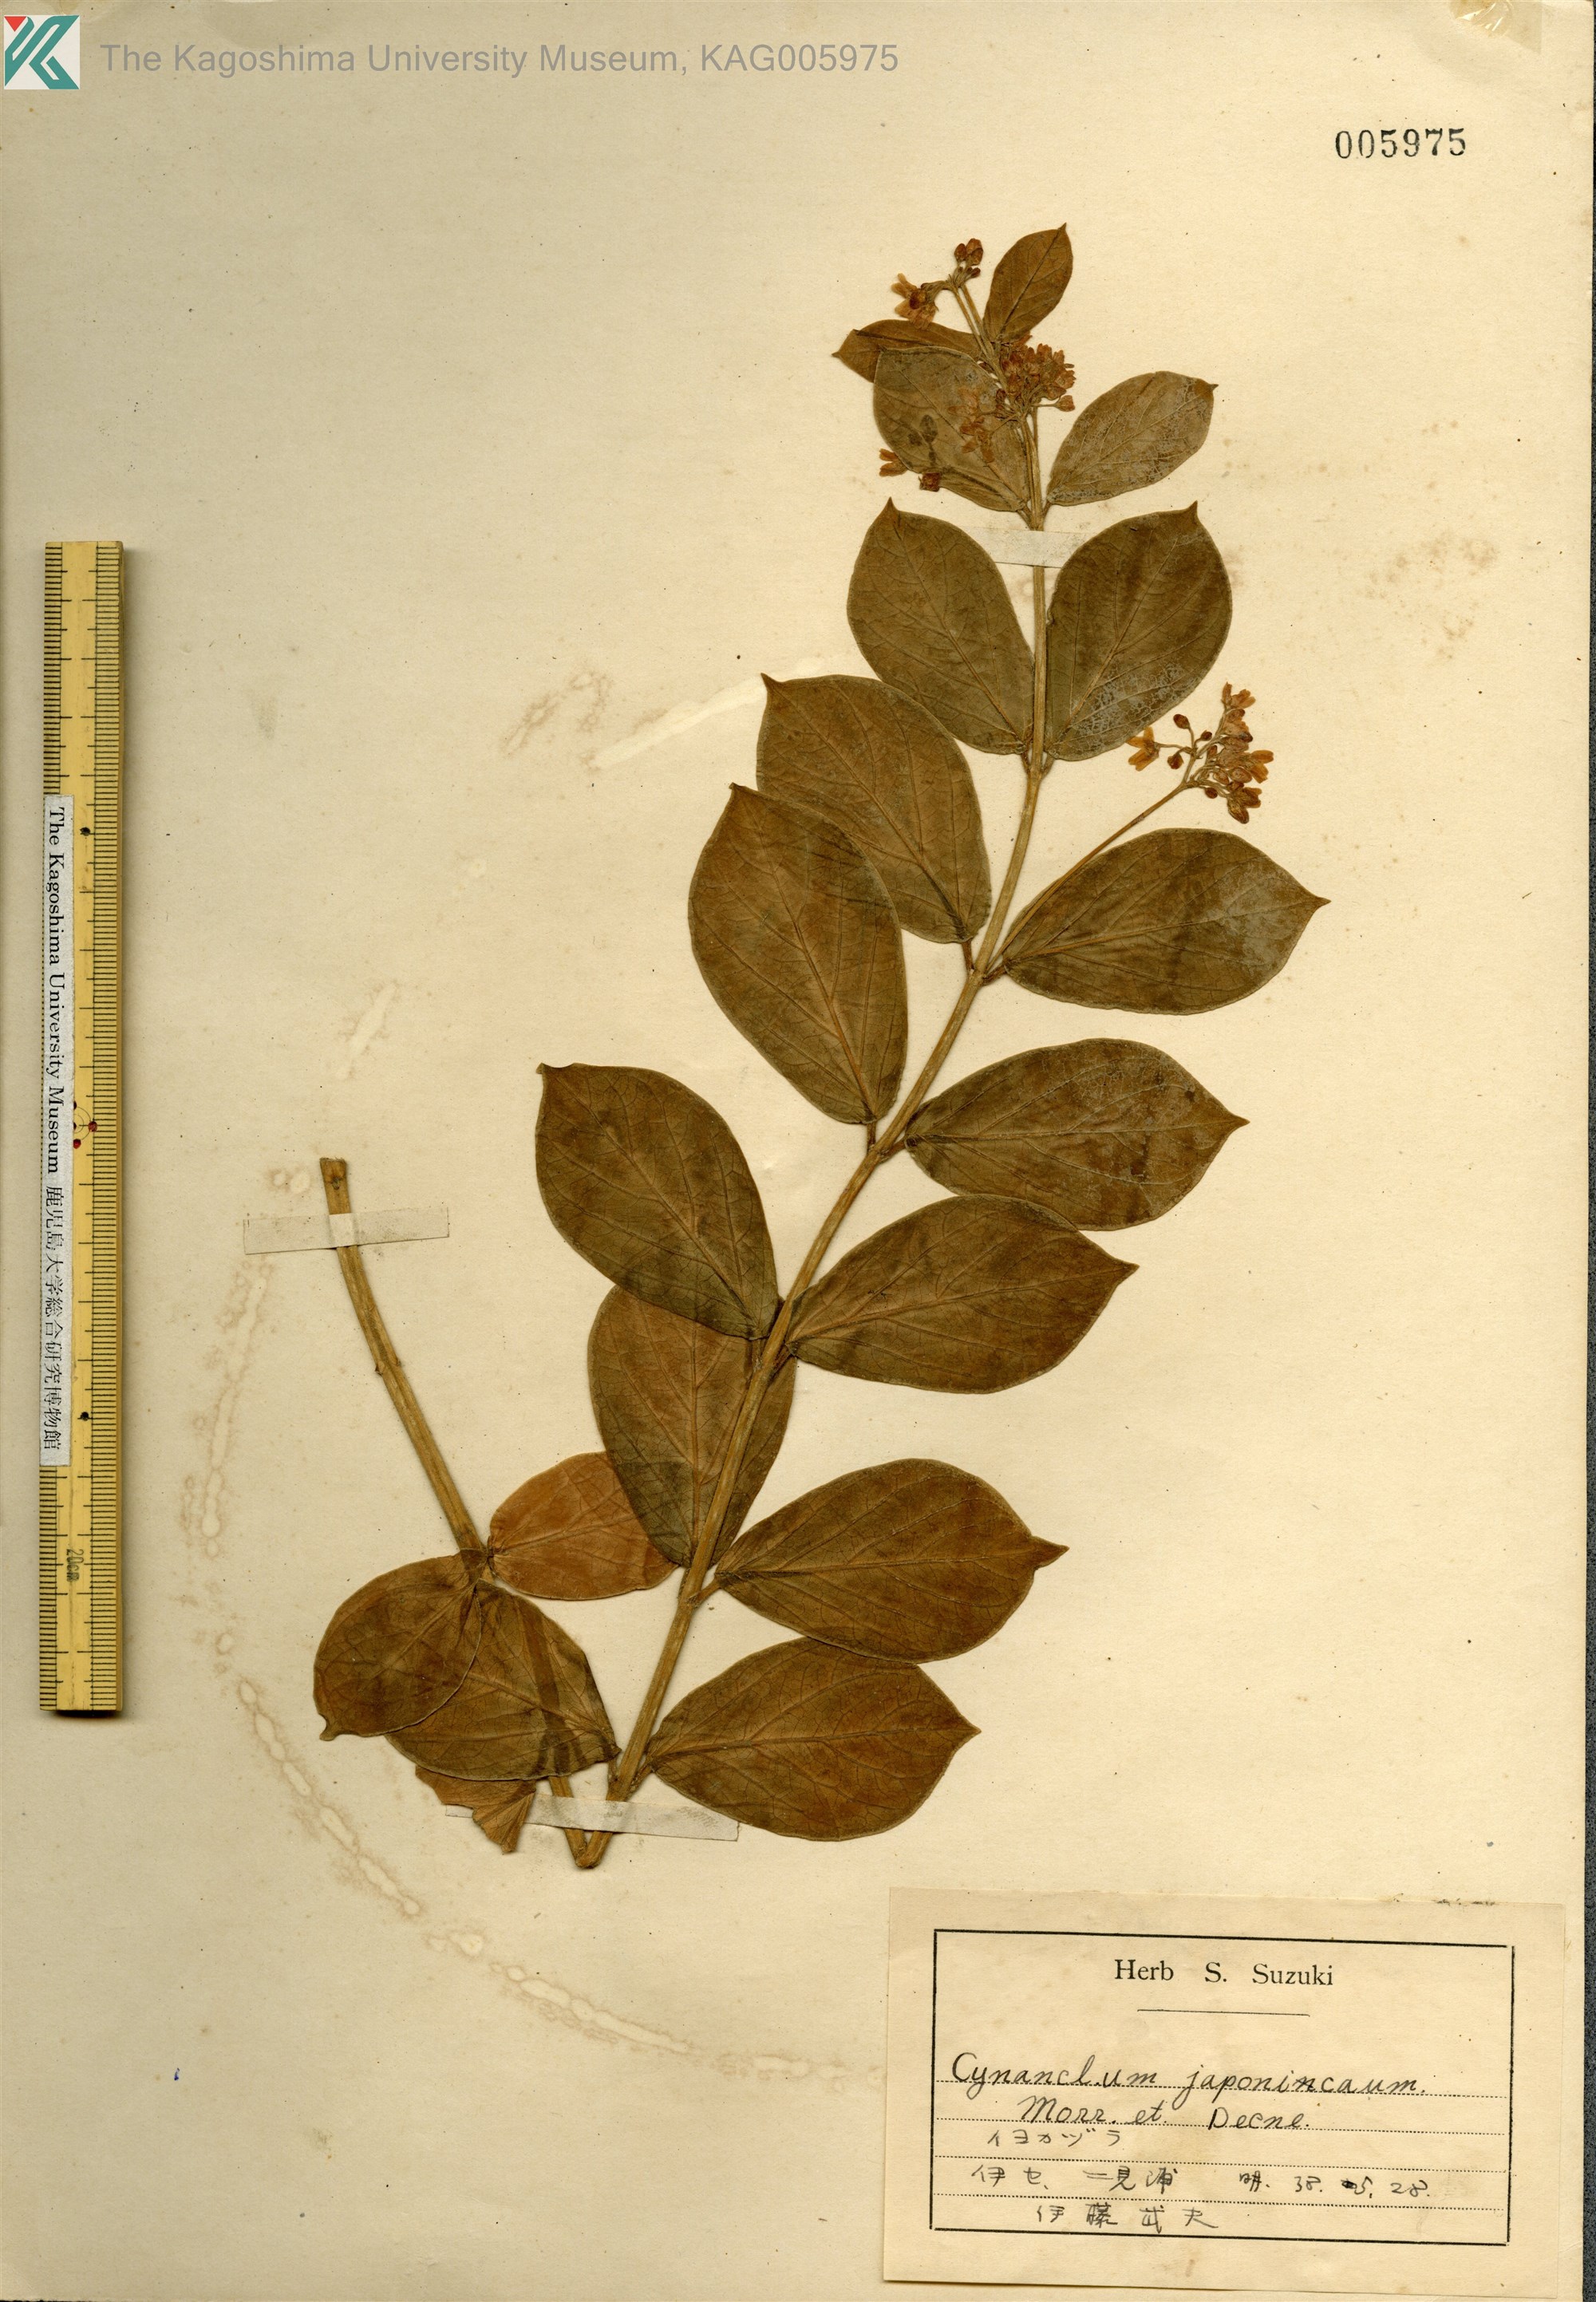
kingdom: Plantae
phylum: Tracheophyta
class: Magnoliopsida
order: Gentianales
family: Apocynaceae
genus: Vincetoxicum
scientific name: Vincetoxicum japonicum
